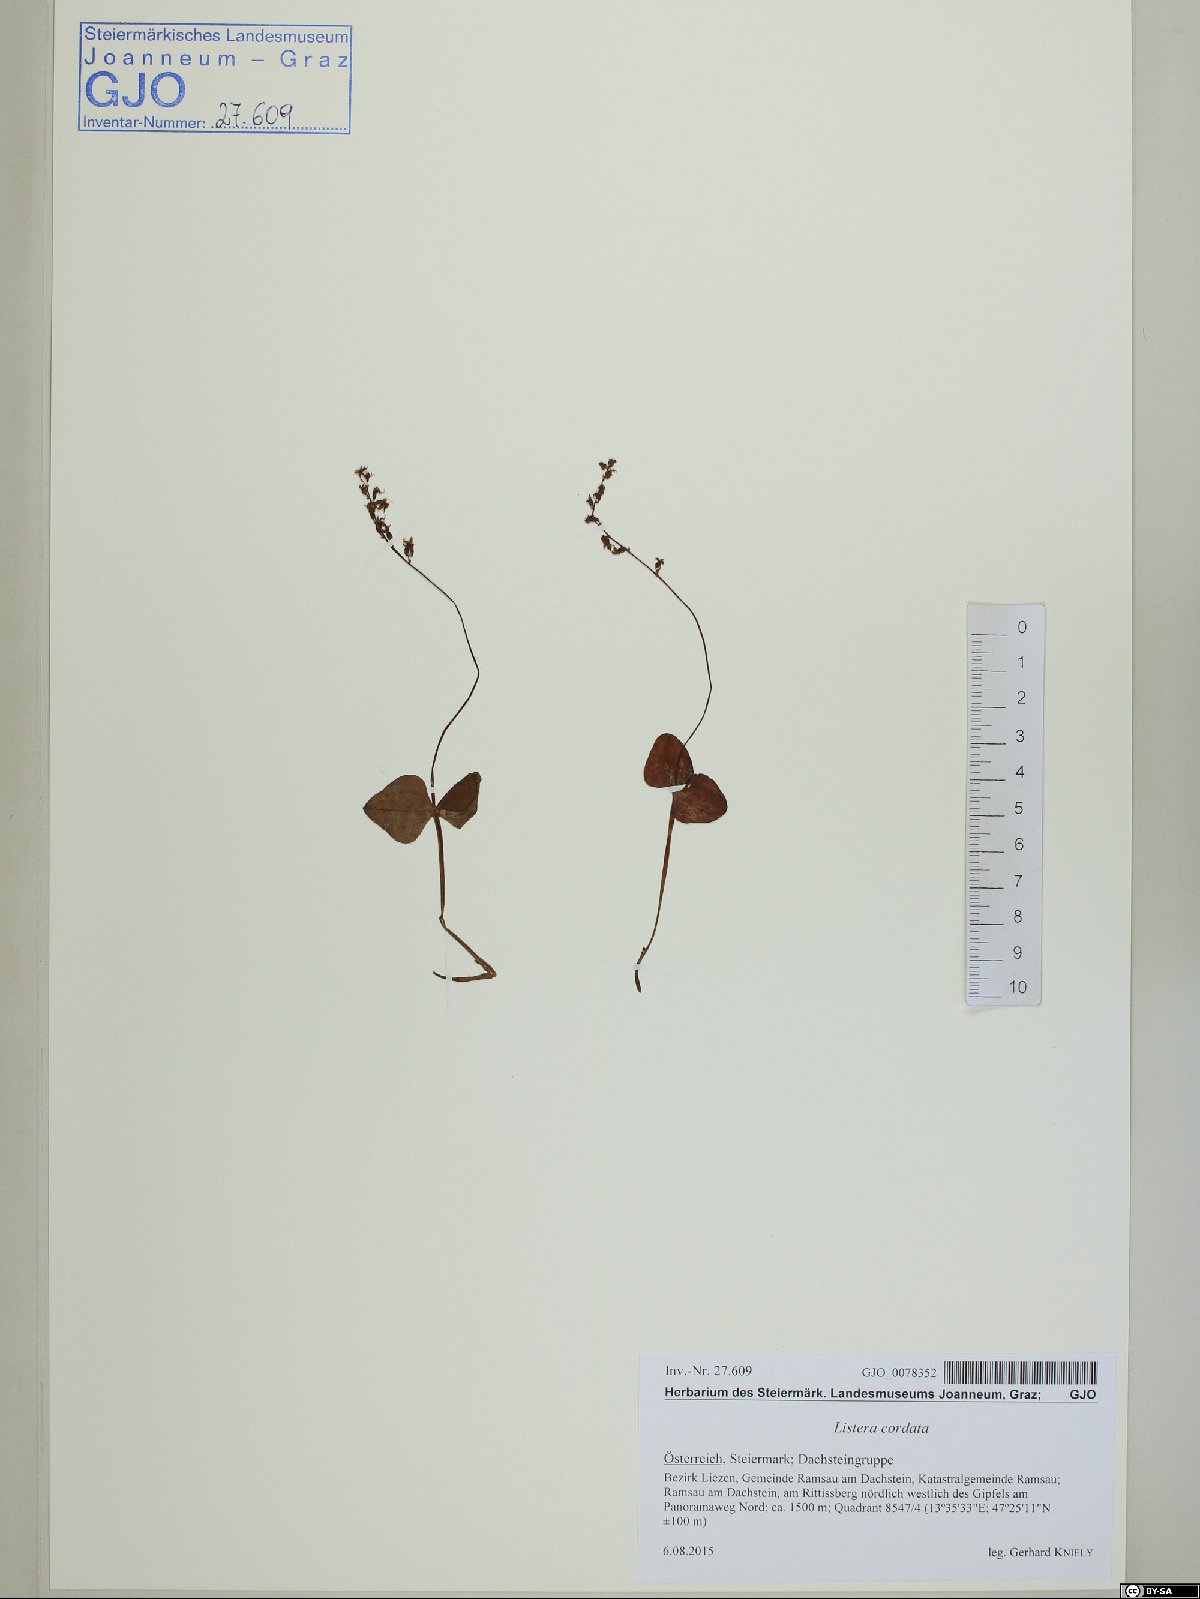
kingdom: Plantae
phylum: Tracheophyta
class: Liliopsida
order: Asparagales
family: Orchidaceae
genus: Neottia
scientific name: Neottia cordata
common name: Lesser twayblade
